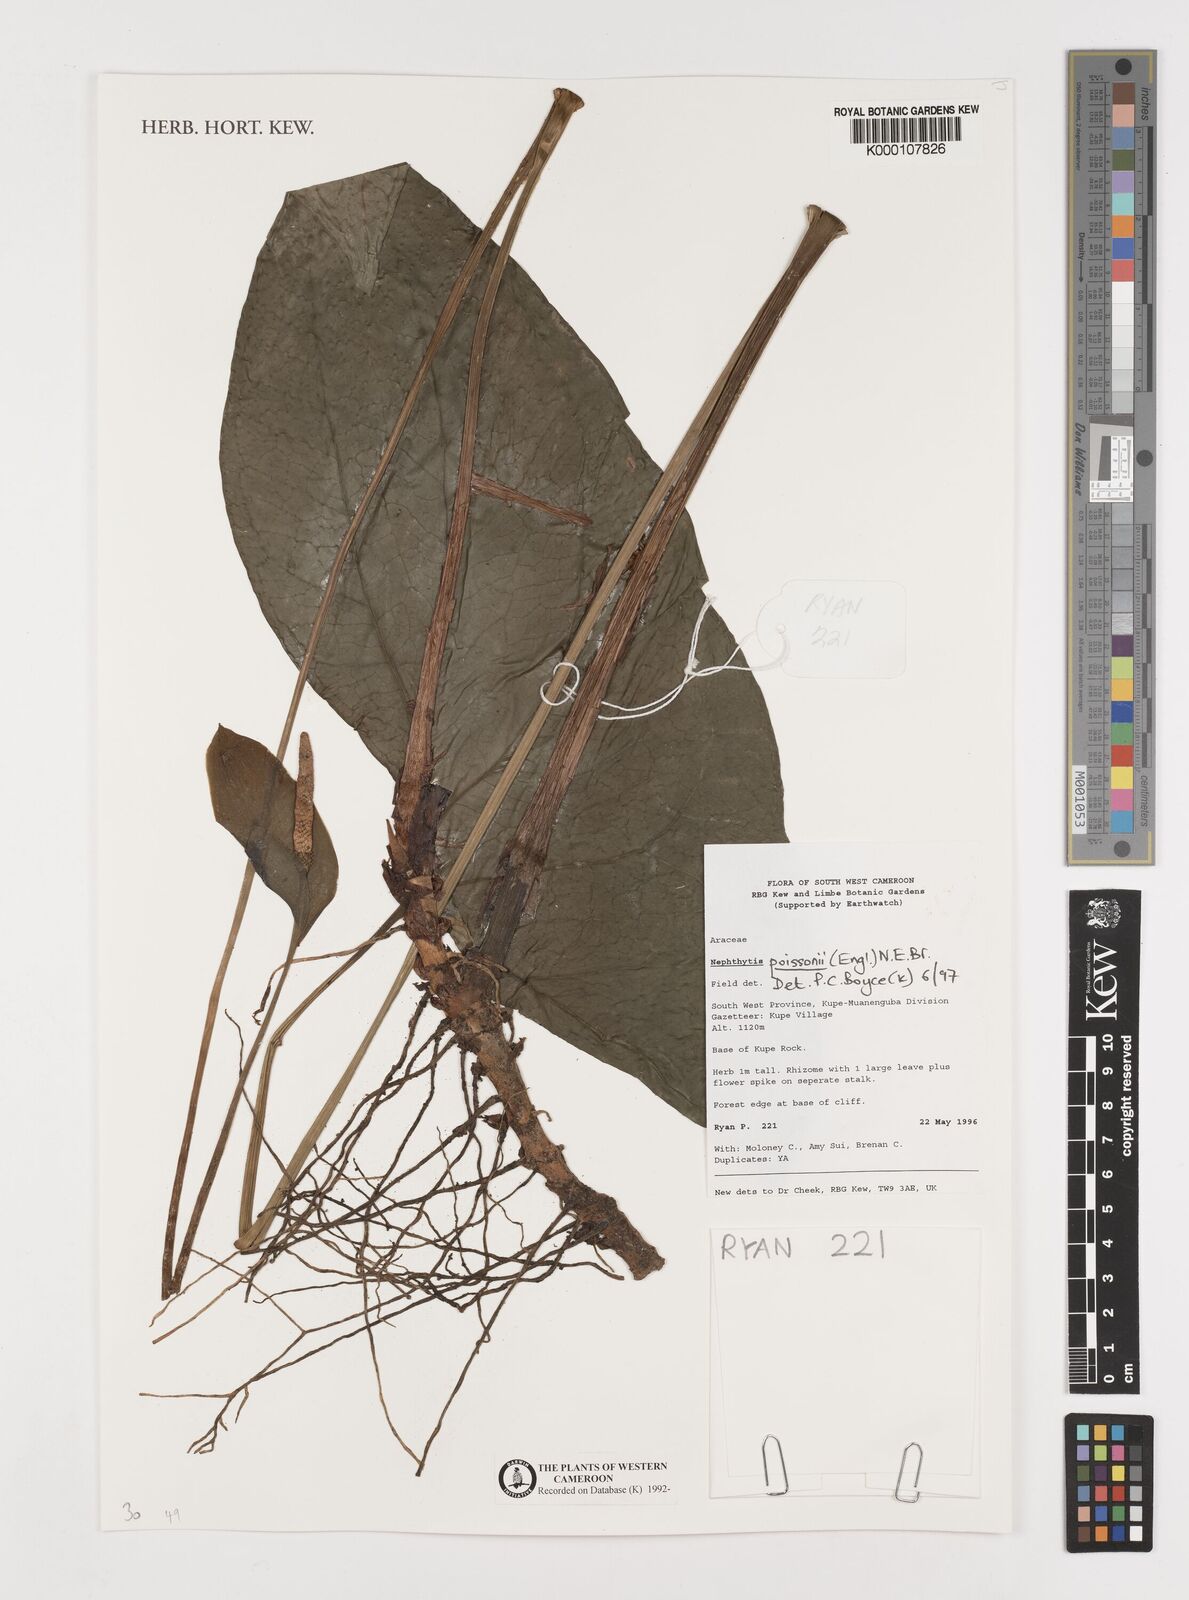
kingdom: Plantae
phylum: Tracheophyta
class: Liliopsida
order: Alismatales
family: Araceae
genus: Nephthytis
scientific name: Nephthytis poissonii
